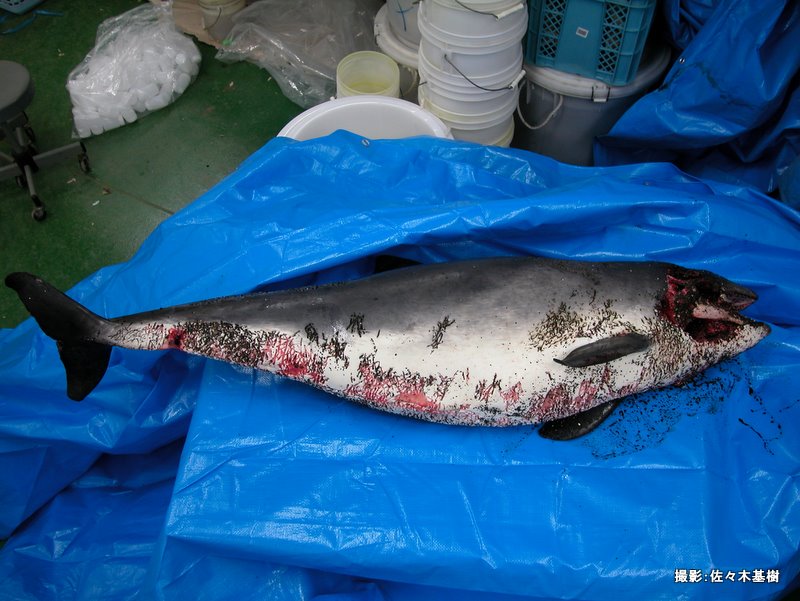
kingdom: Animalia
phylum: Chordata
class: Mammalia
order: Cetacea
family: Phocoenidae
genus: Phocoena
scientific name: Phocoena phocoena
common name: Harbour porpoise
